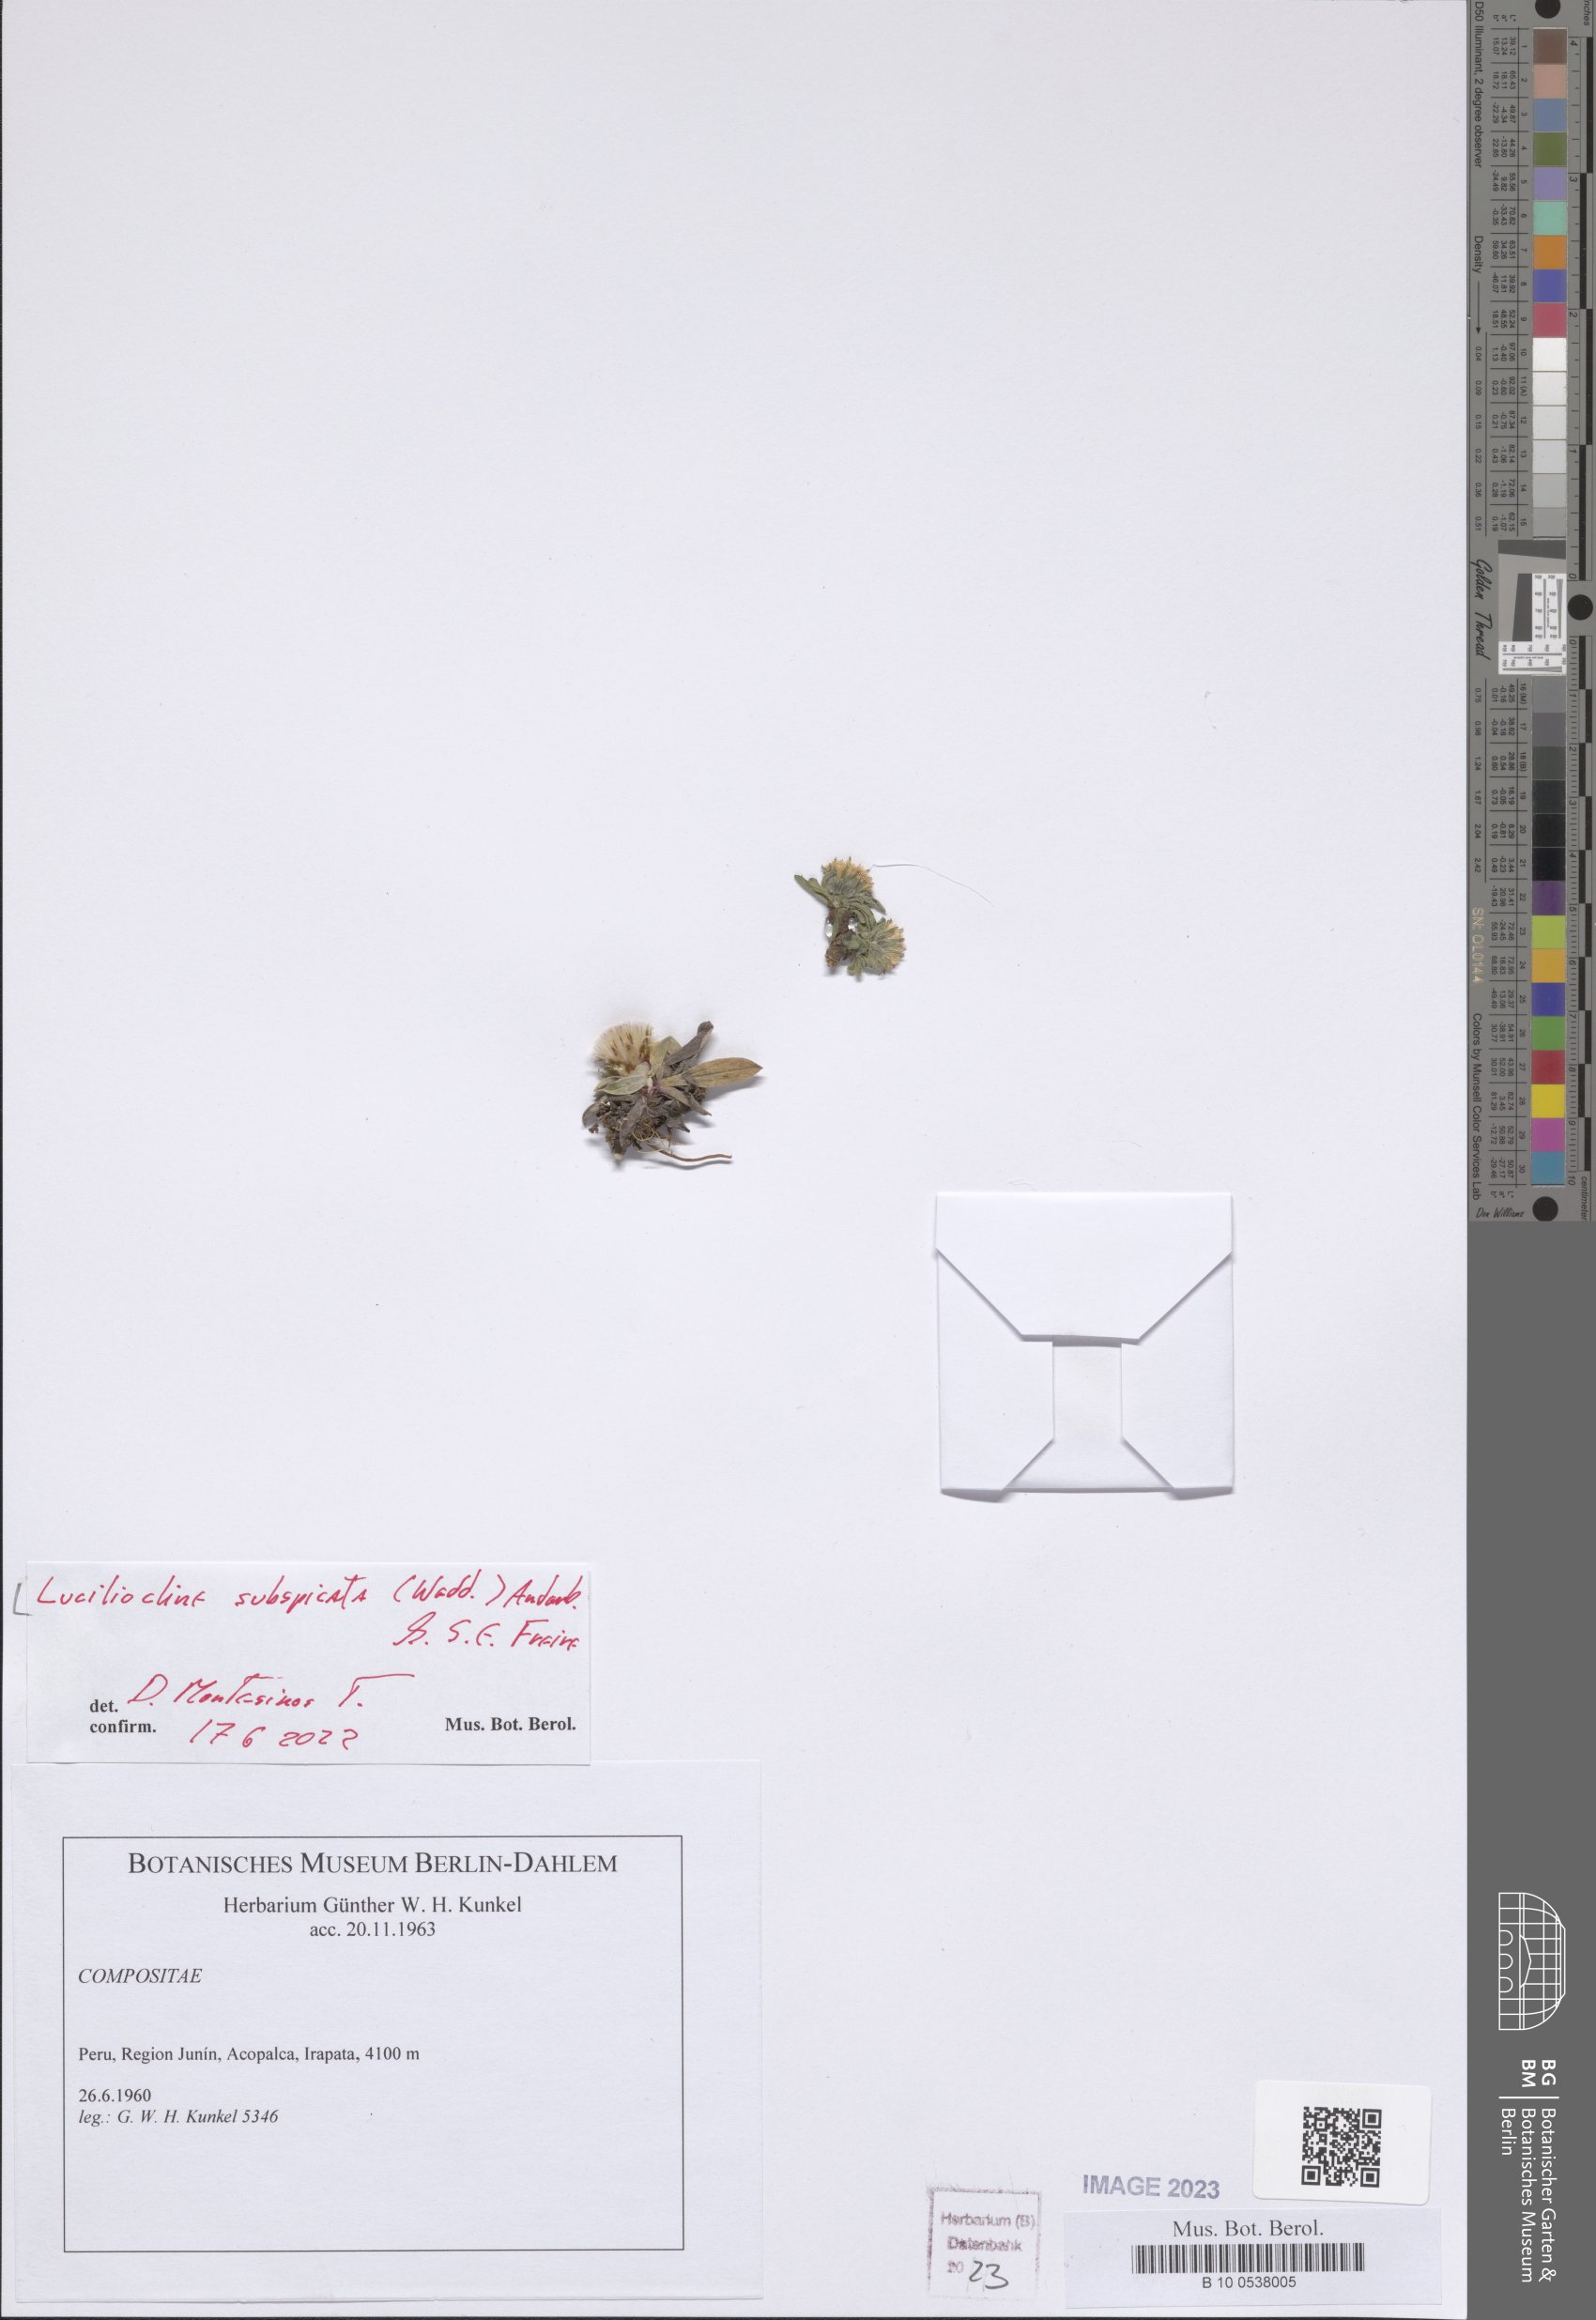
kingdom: Plantae
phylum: Tracheophyta
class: Magnoliopsida
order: Asterales
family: Asteraceae
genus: Mniodes
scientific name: Mniodes subspicata
